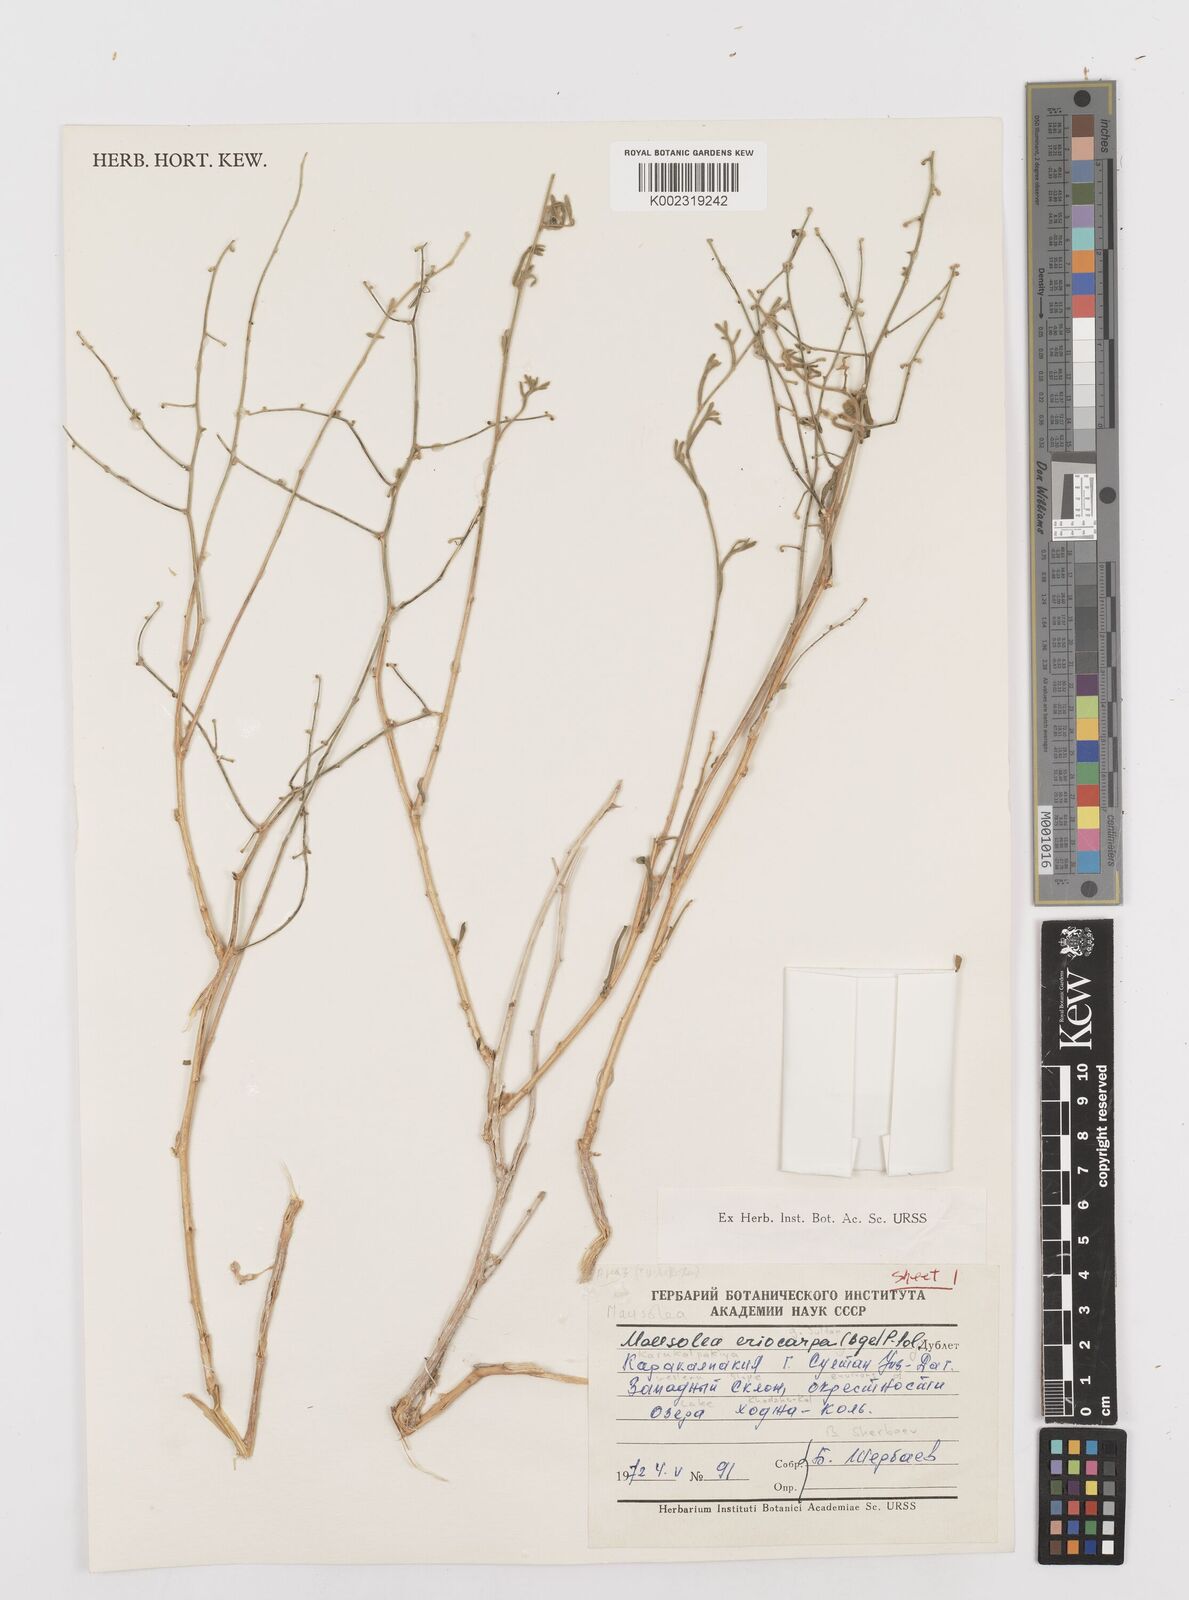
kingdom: Plantae
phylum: Tracheophyta
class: Magnoliopsida
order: Asterales
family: Asteraceae
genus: Mausolea
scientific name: Mausolea
